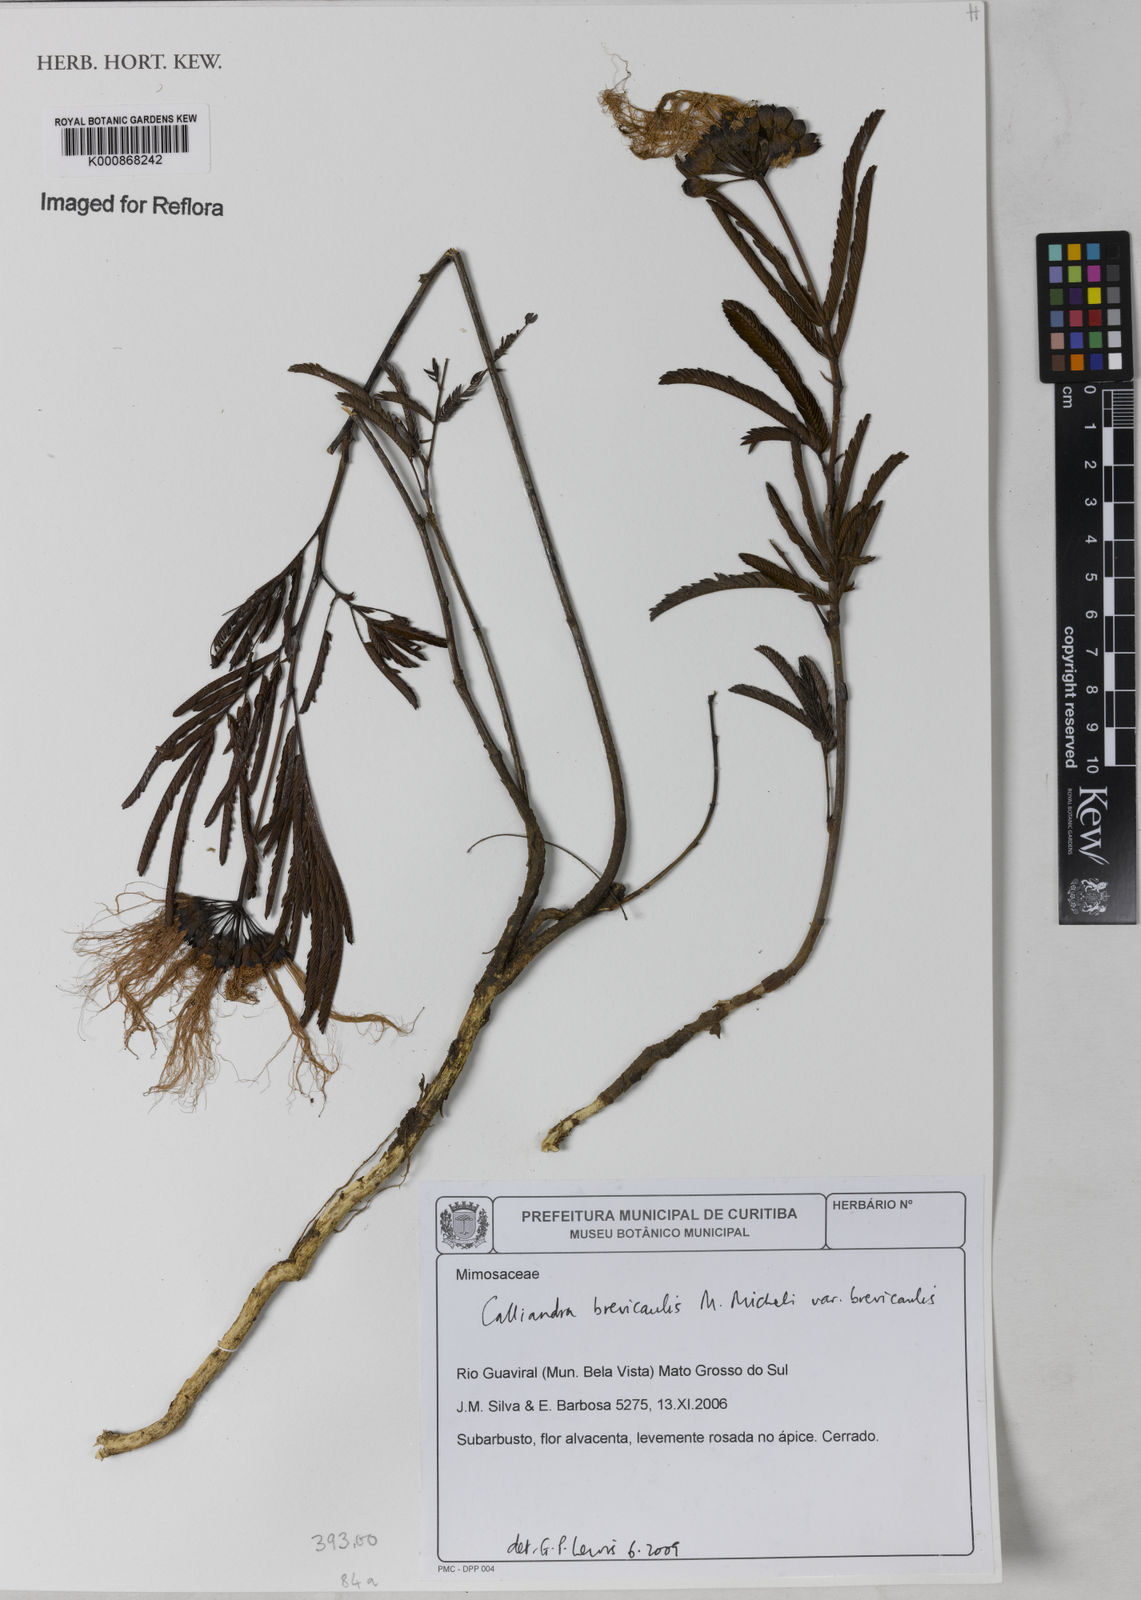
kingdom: Plantae
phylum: Tracheophyta
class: Magnoliopsida
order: Fabales
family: Fabaceae
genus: Calliandra
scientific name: Calliandra brevicaulis
